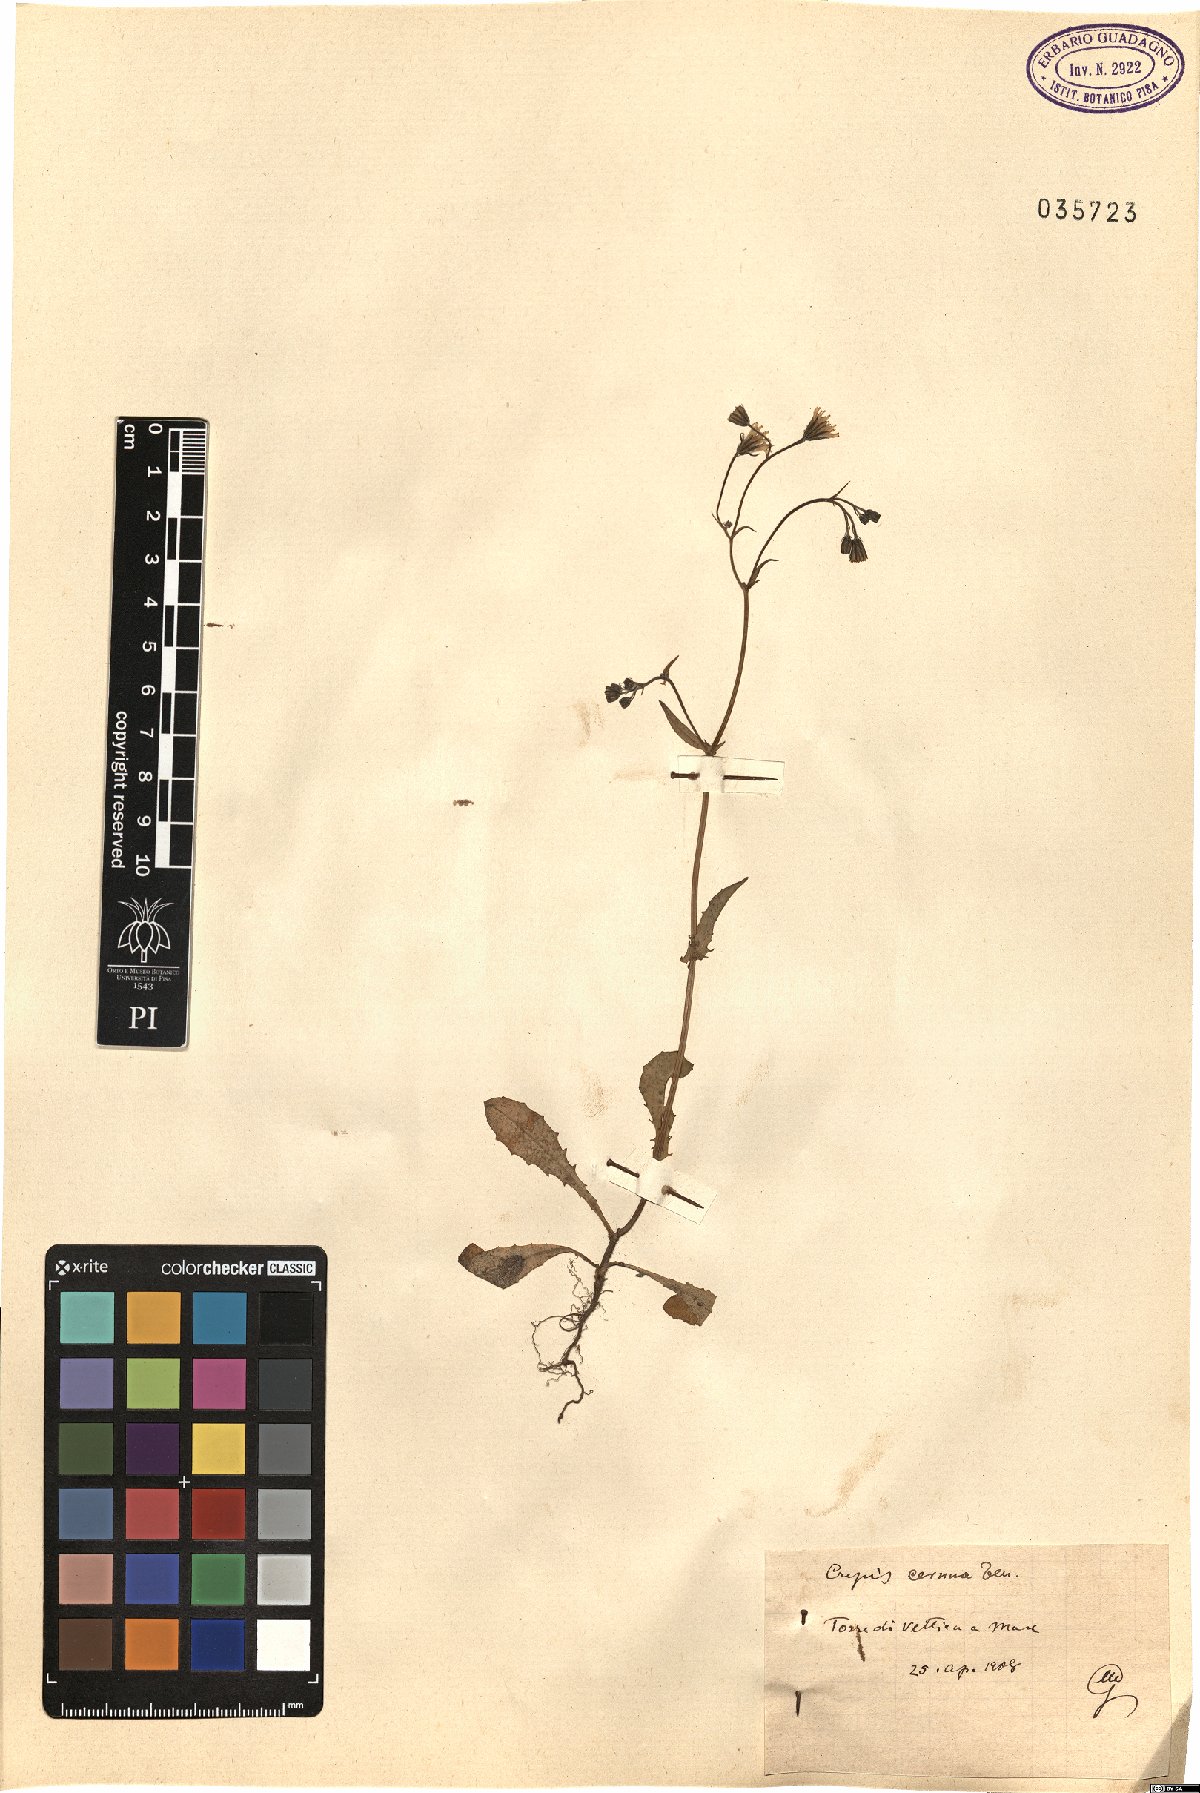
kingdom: Plantae
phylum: Tracheophyta
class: Magnoliopsida
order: Asterales
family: Asteraceae
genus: Crepis
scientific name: Crepis neglecta
